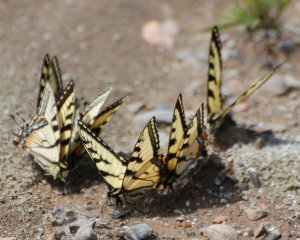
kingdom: Animalia
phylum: Arthropoda
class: Insecta
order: Lepidoptera
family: Papilionidae
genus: Pterourus
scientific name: Pterourus canadensis
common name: Canadian Tiger Swallowtail
